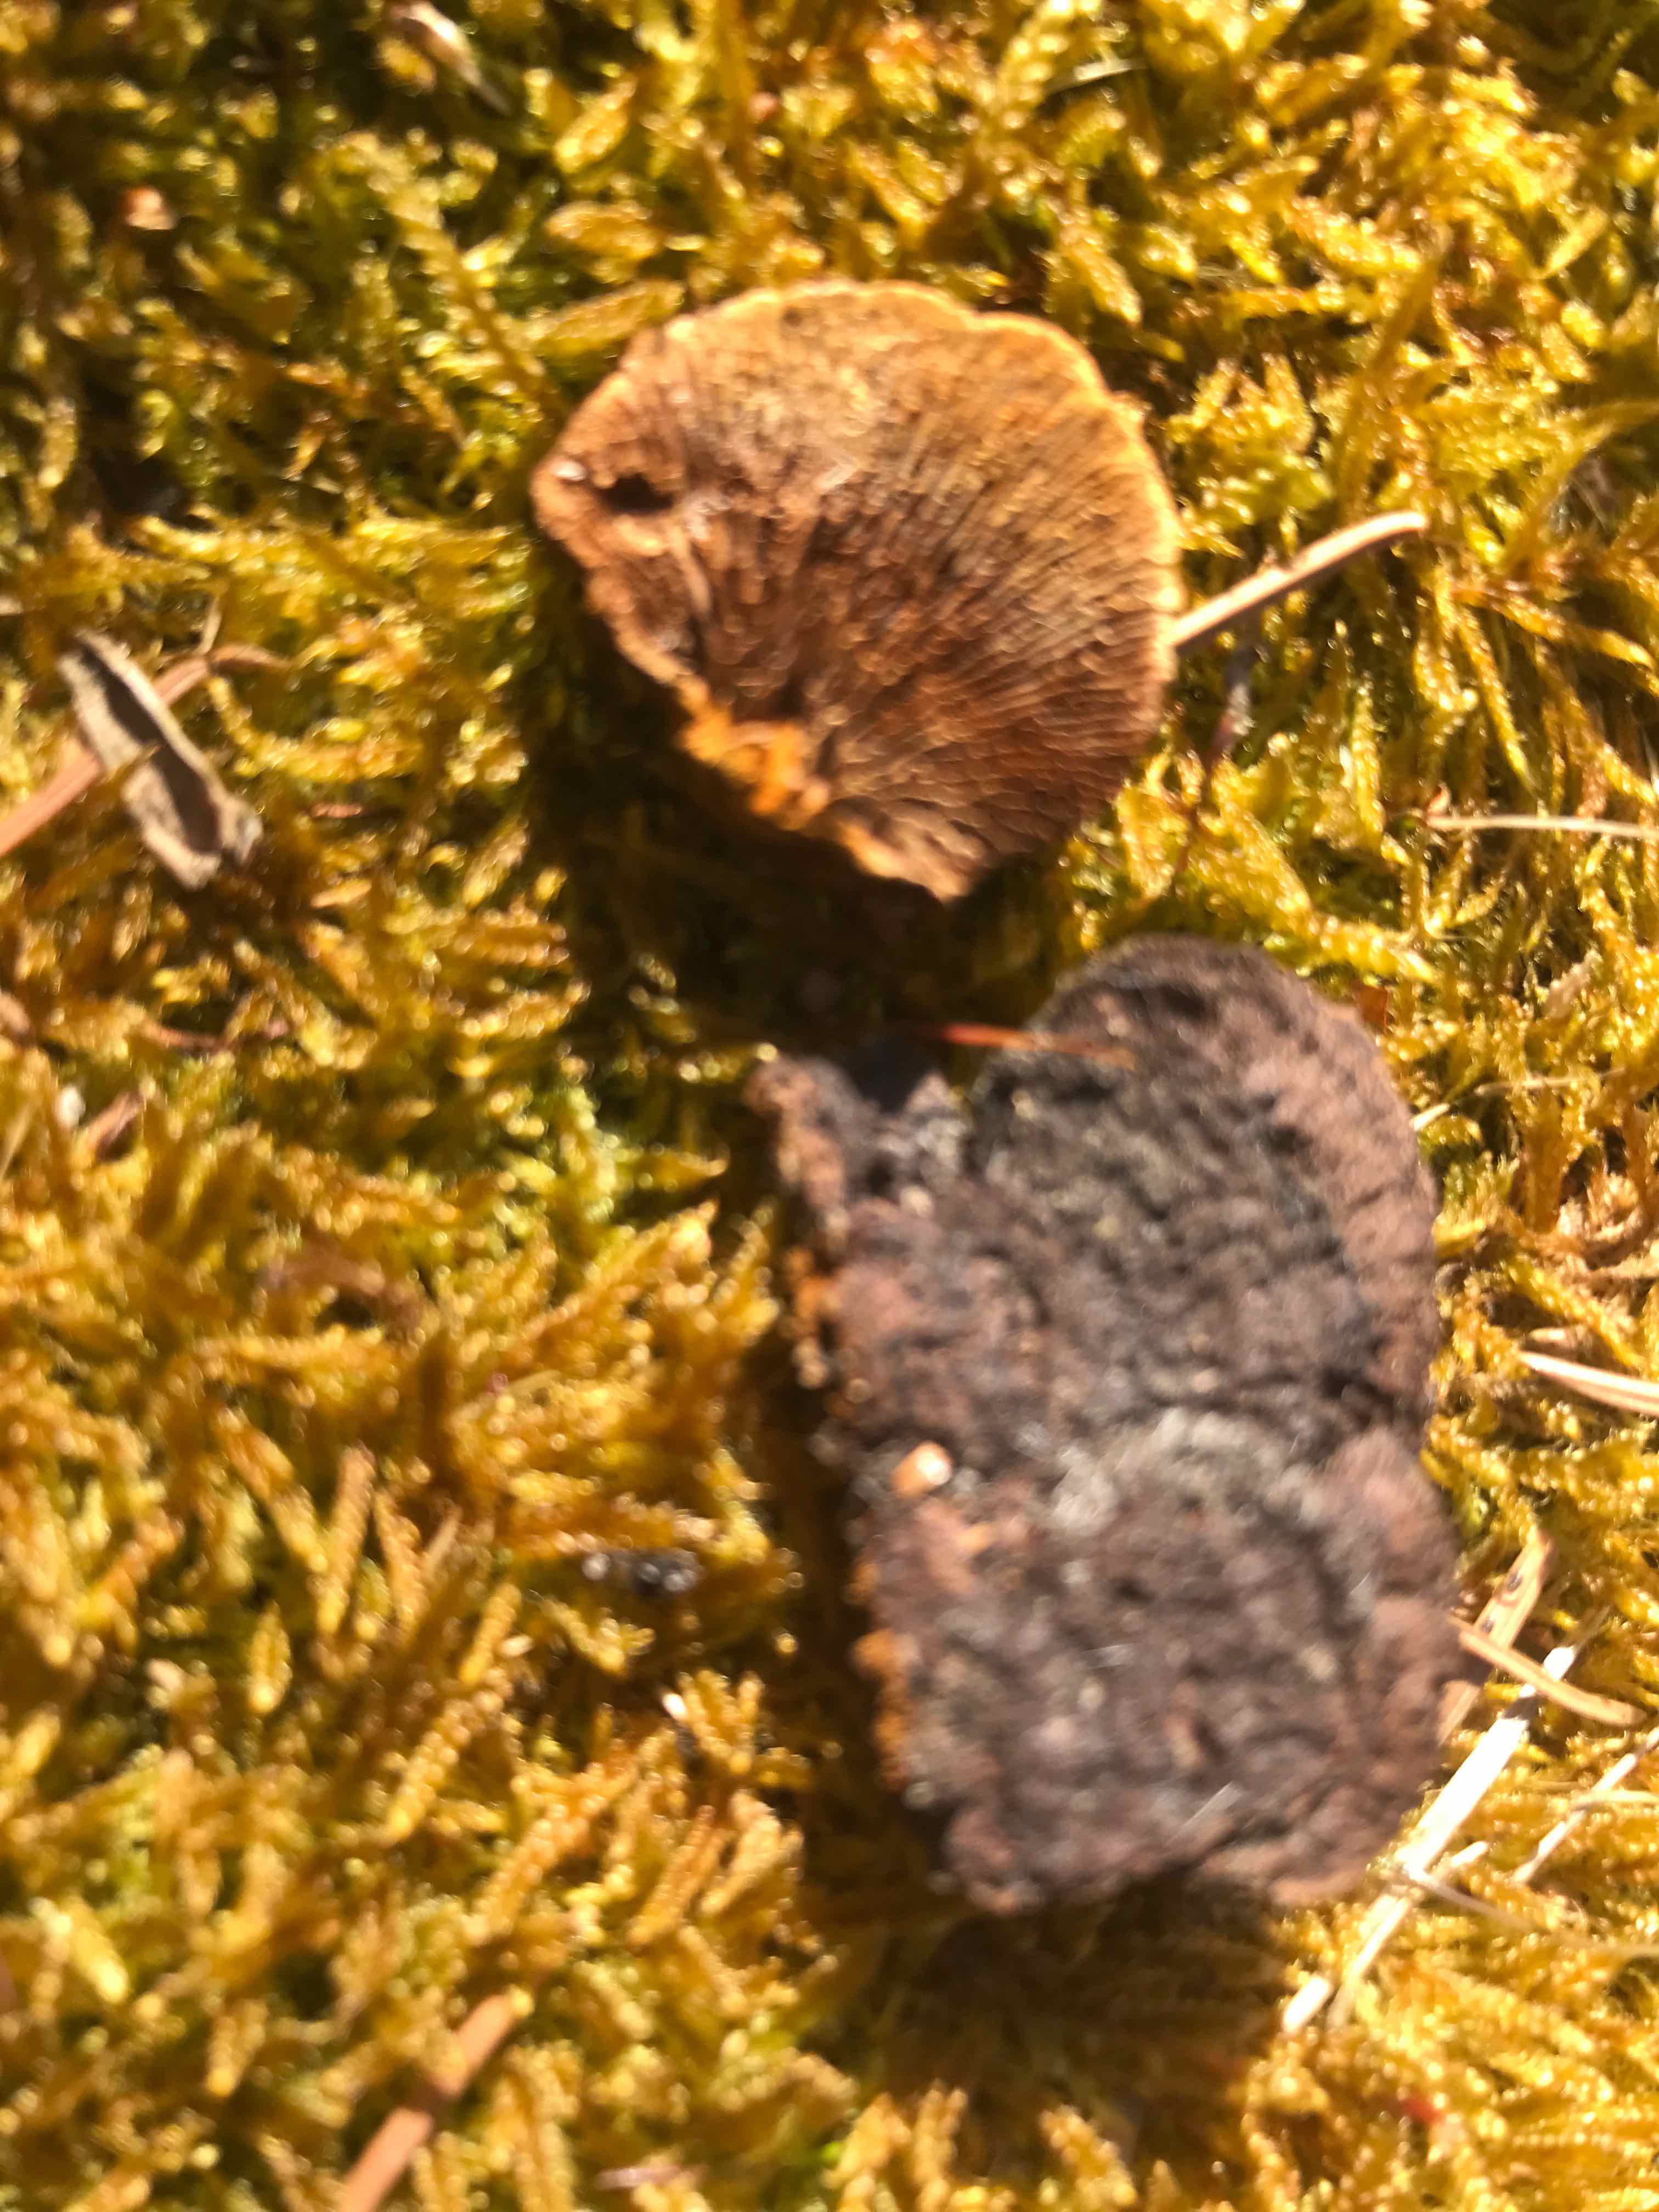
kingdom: Fungi
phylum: Basidiomycota
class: Agaricomycetes
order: Gloeophyllales
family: Gloeophyllaceae
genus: Gloeophyllum
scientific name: Gloeophyllum sepiarium
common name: fyrre-korkhat
